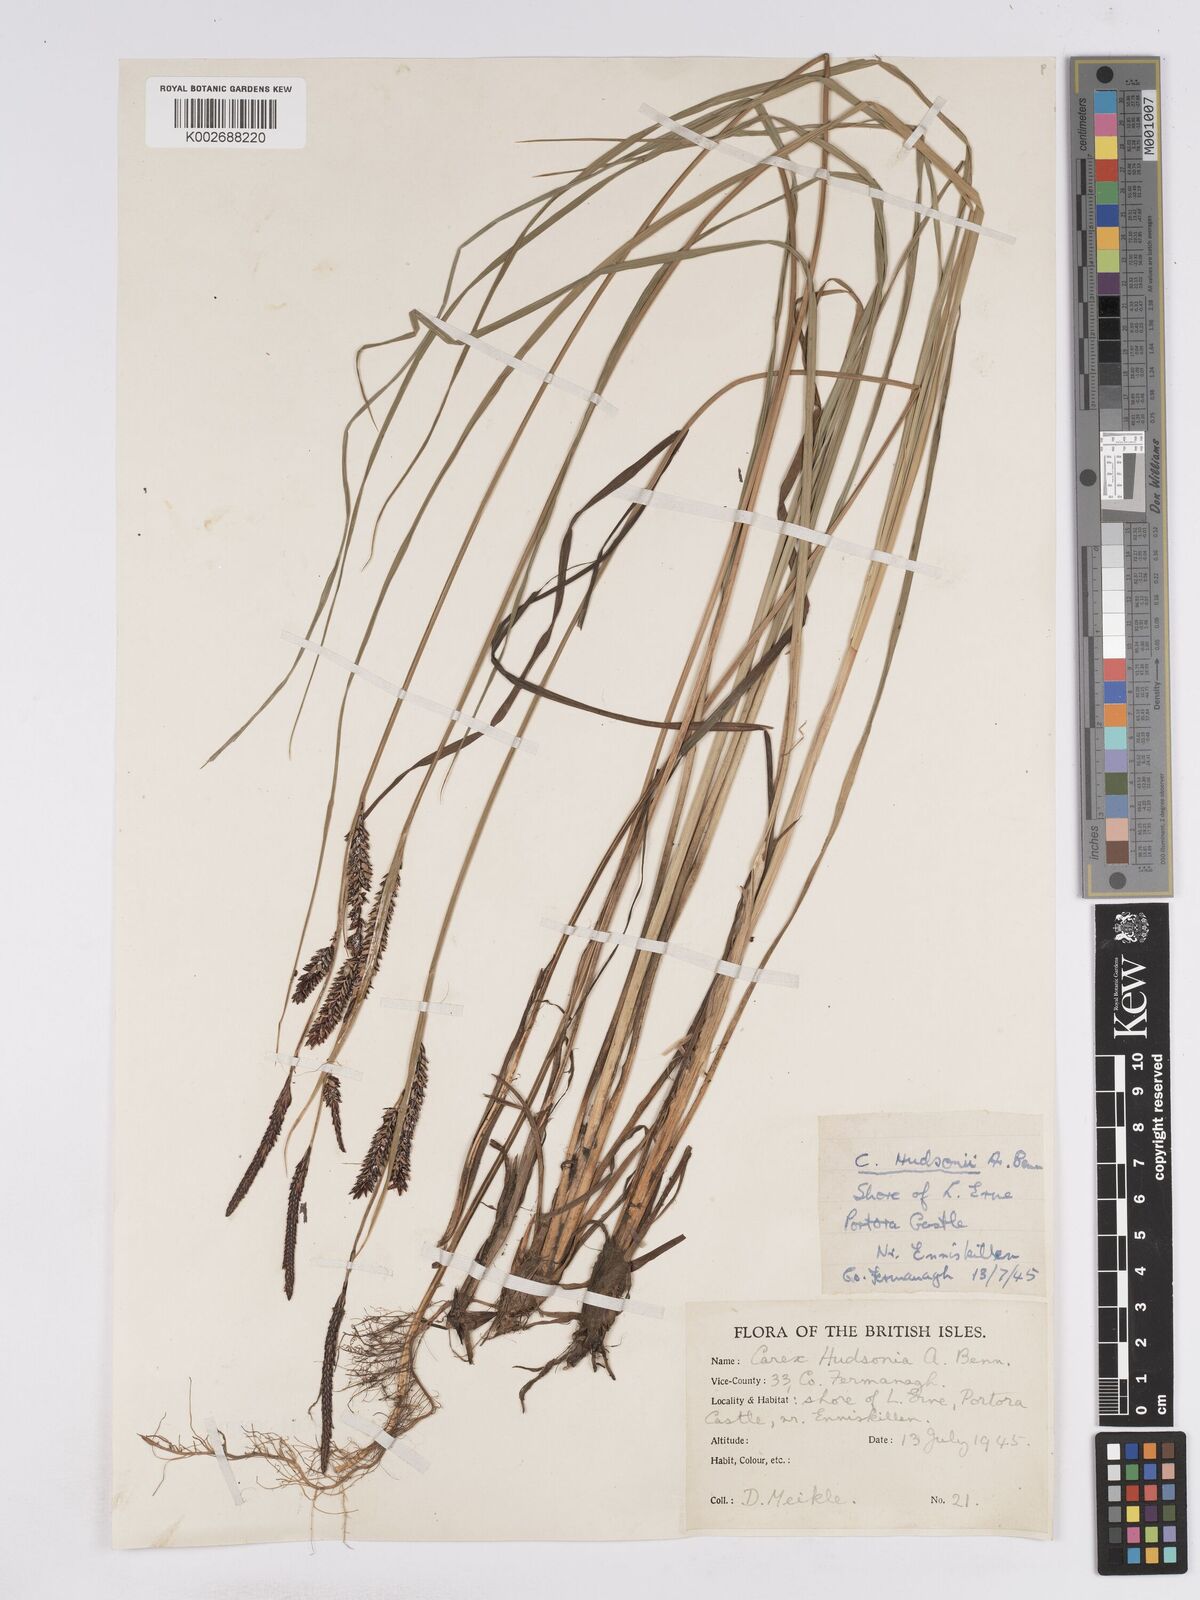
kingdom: Plantae
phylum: Tracheophyta
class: Liliopsida
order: Poales
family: Cyperaceae
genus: Carex
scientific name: Carex elata
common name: Tufted sedge
